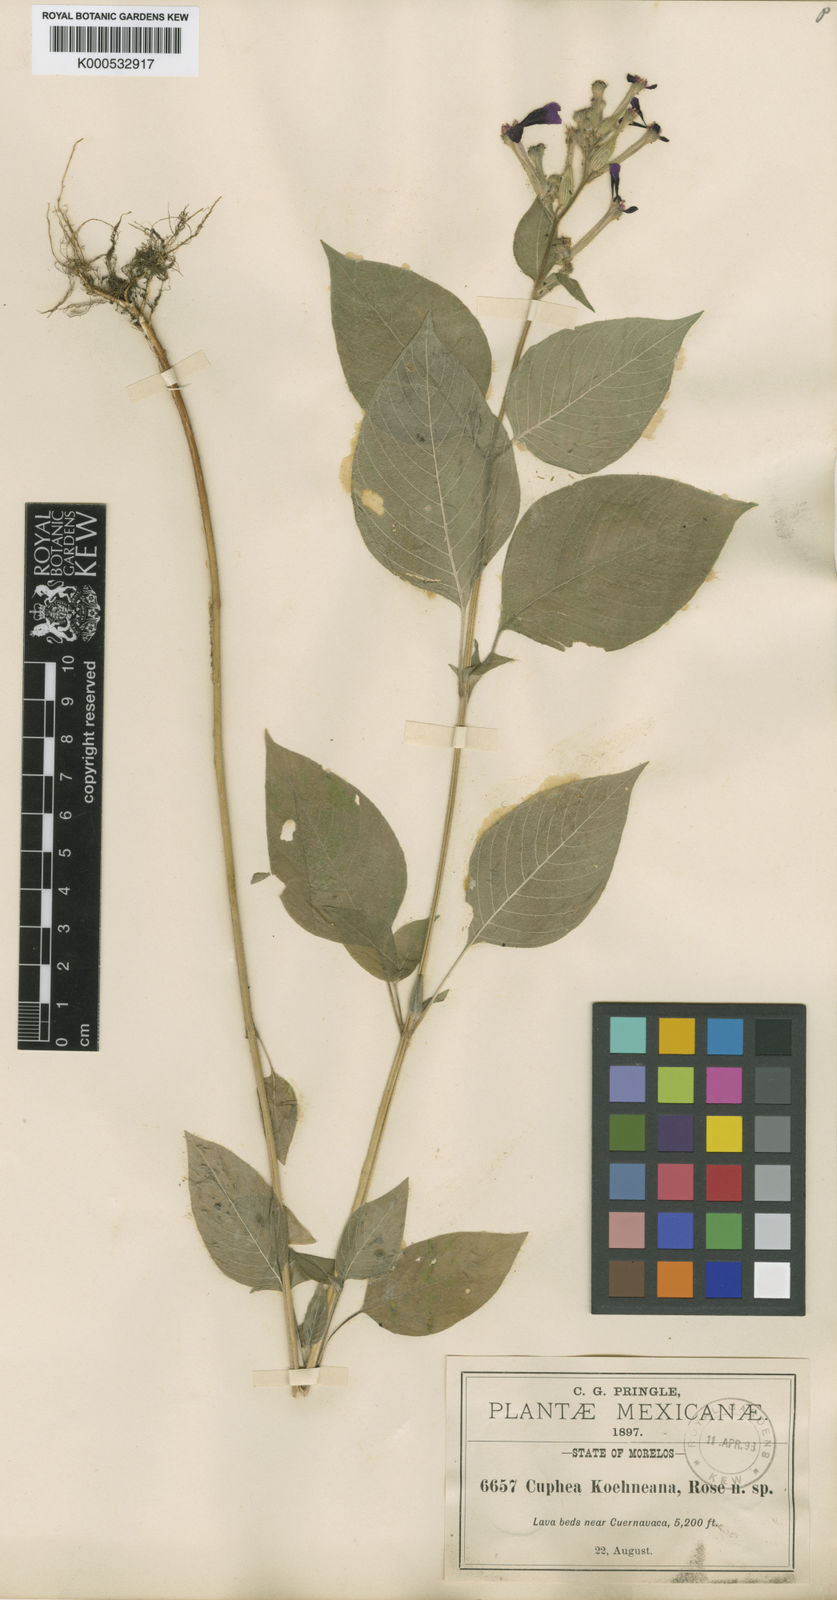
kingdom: Plantae
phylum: Tracheophyta
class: Magnoliopsida
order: Myrtales
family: Lythraceae
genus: Cuphea
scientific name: Cuphea koehneana
